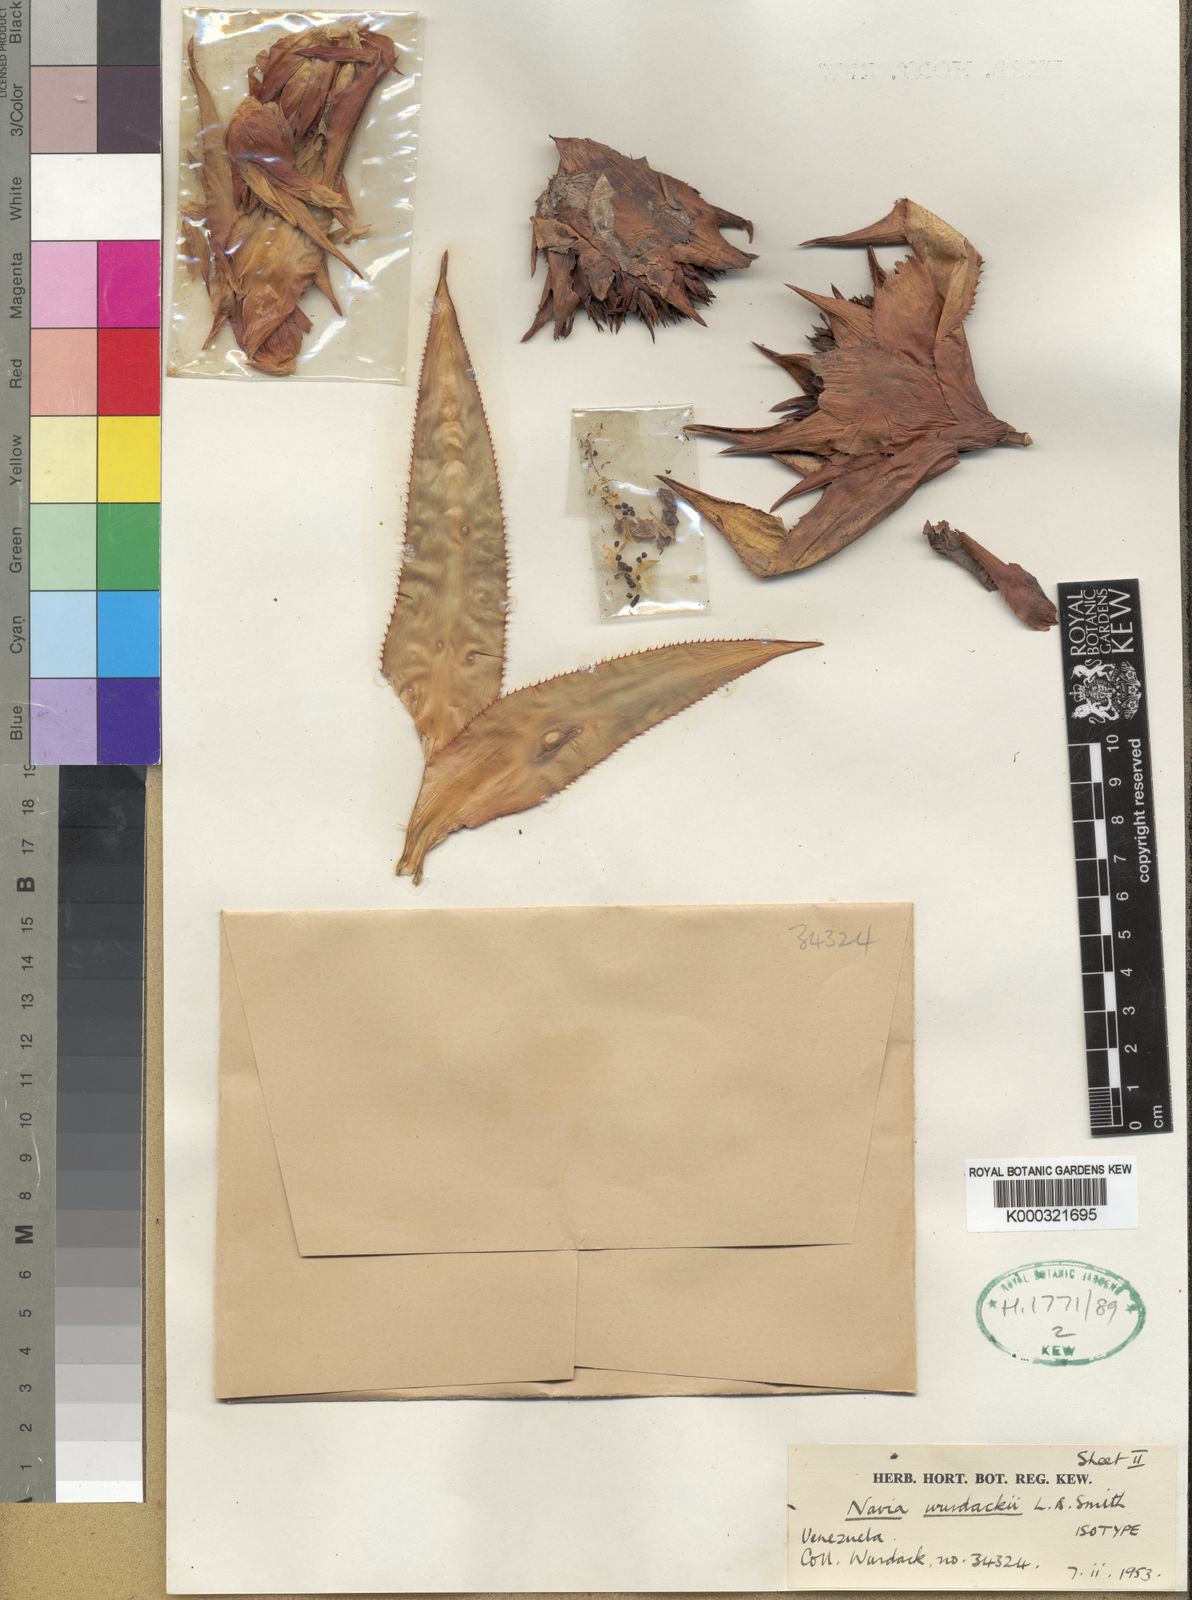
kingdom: Plantae
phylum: Tracheophyta
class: Liliopsida
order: Poales
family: Bromeliaceae
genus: Navia
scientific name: Navia wurdackii
